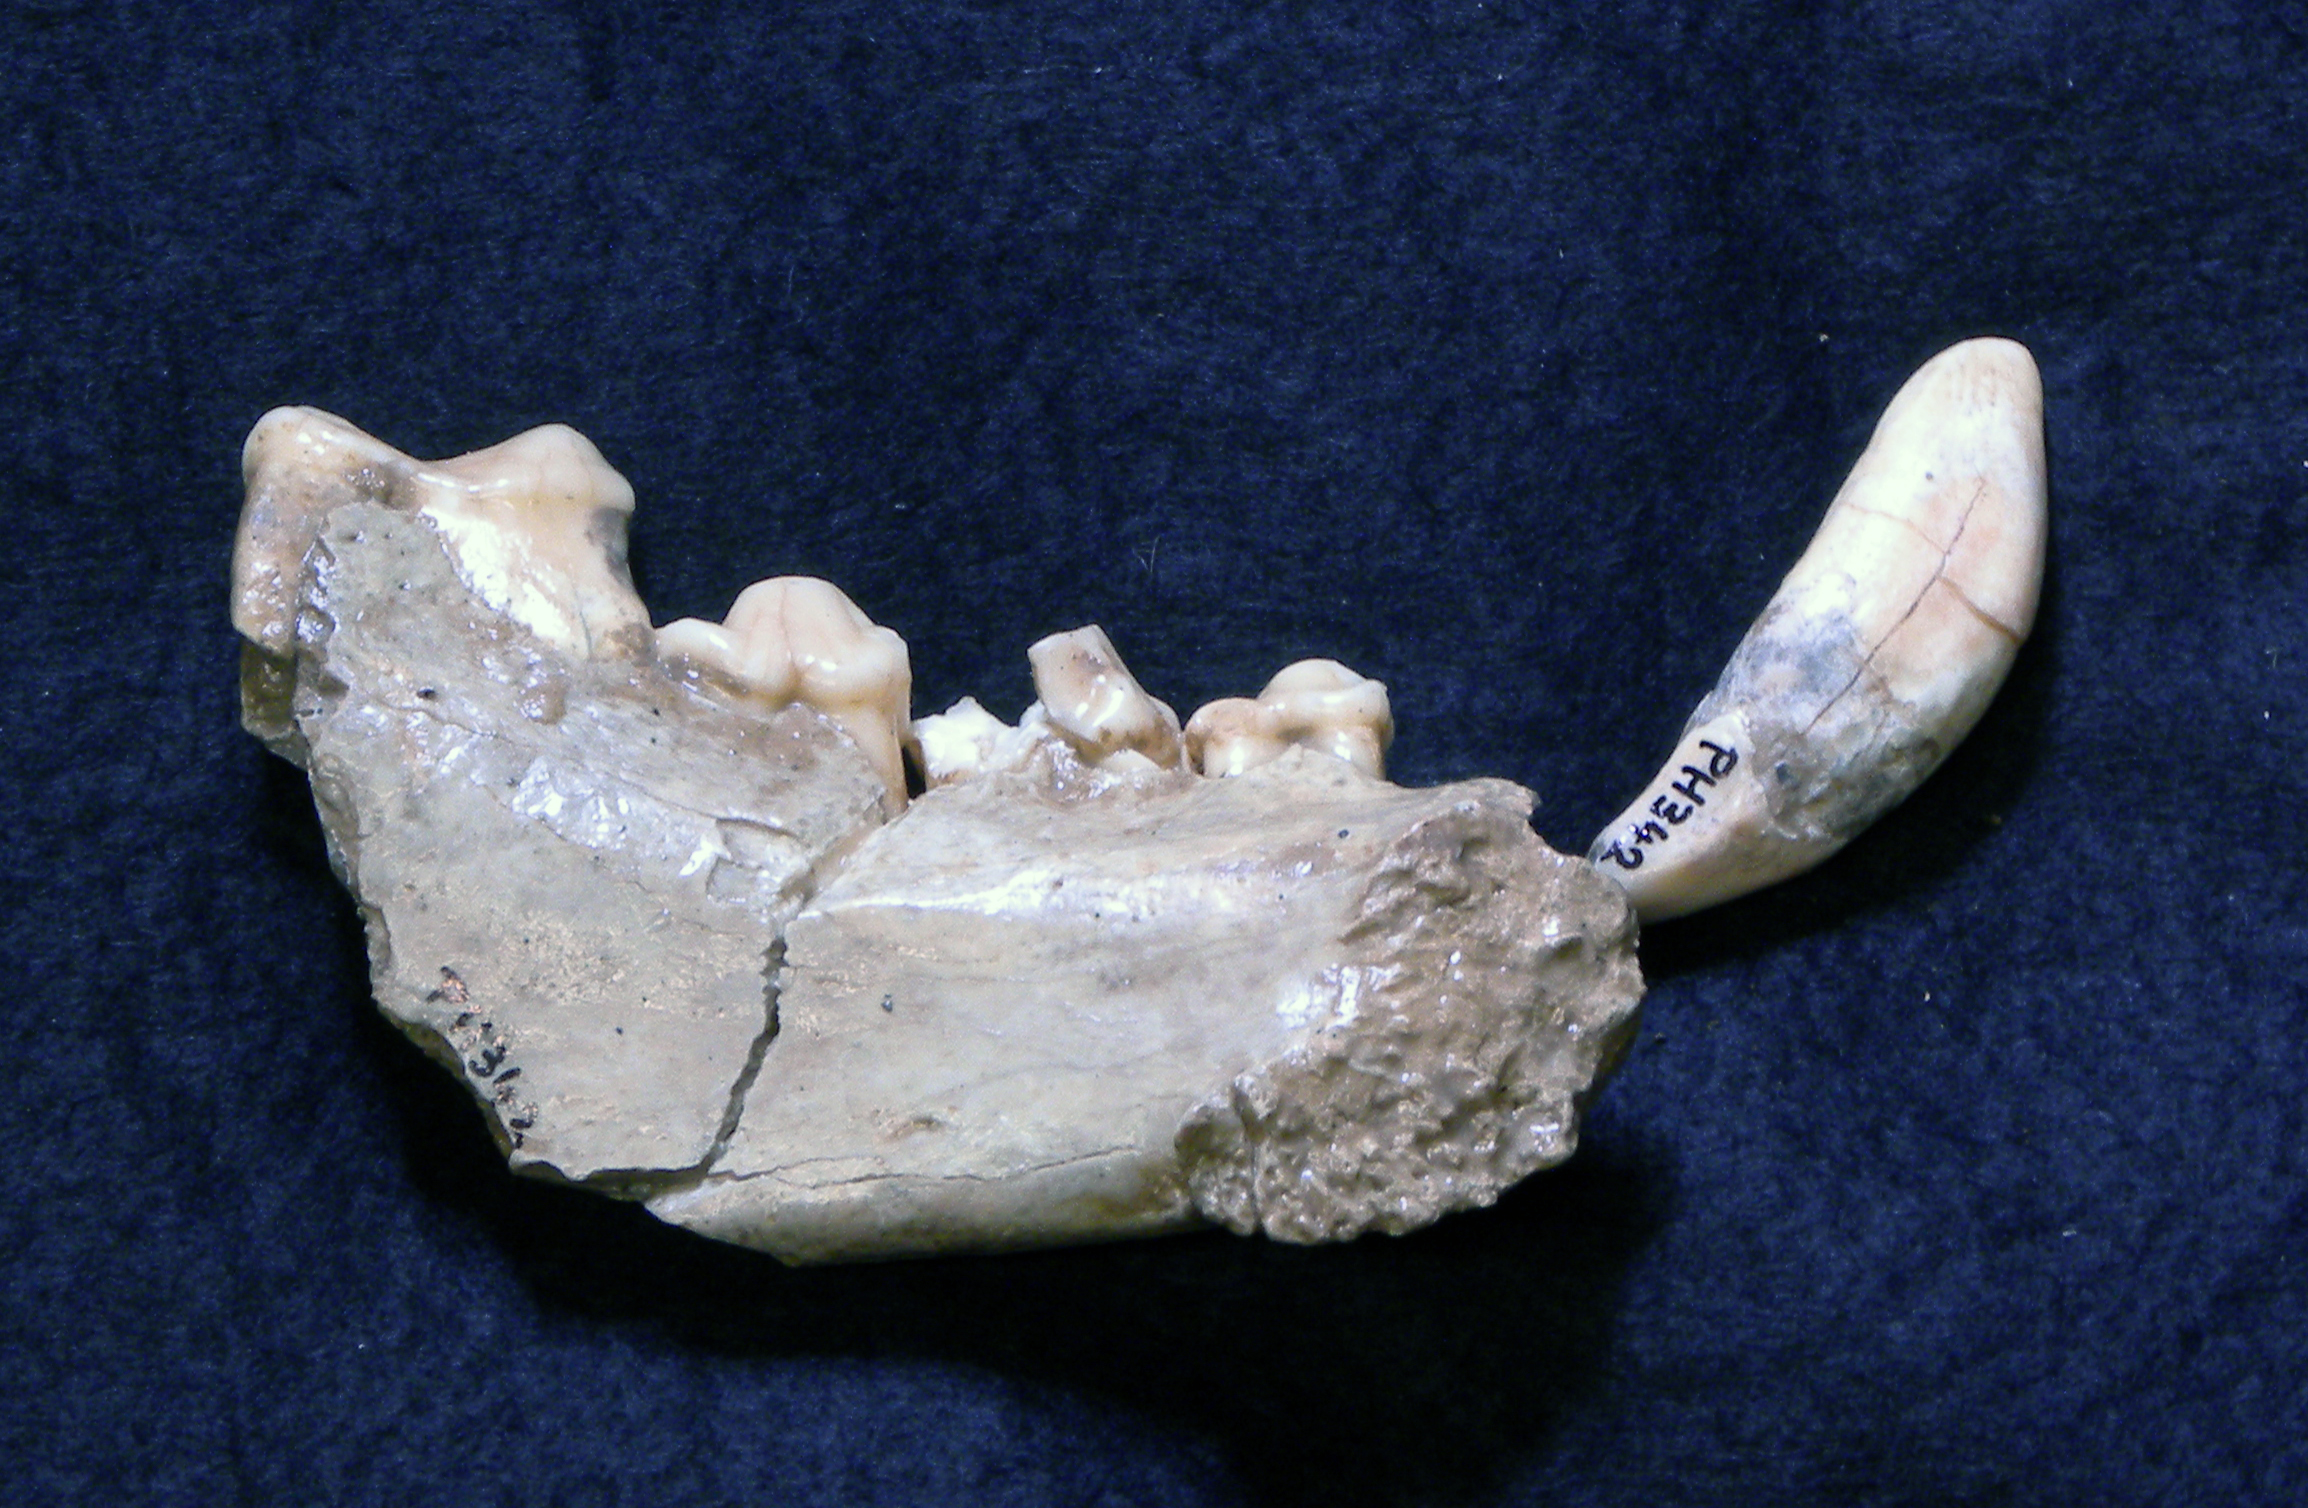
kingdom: Animalia
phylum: Chordata
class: Mammalia
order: Carnivora
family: Hyaenidae
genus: Crocuta
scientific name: Crocuta spelaea
